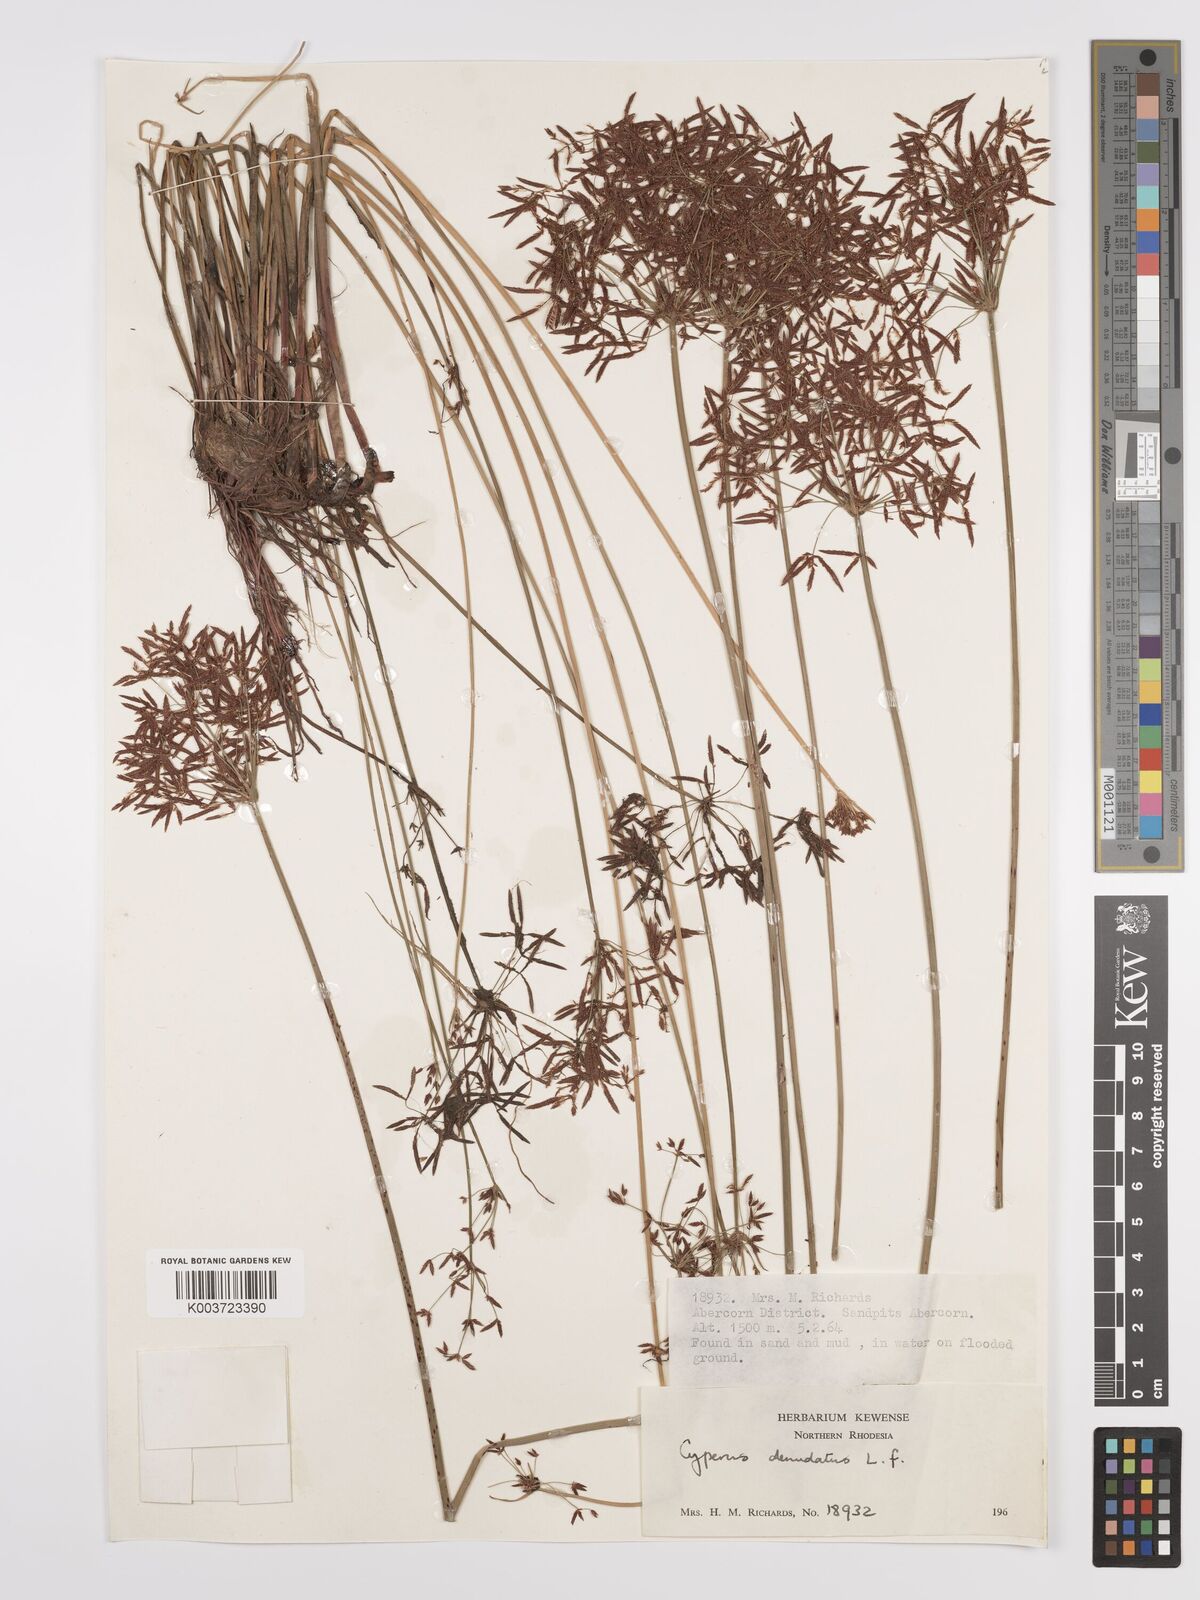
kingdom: Plantae
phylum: Tracheophyta
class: Liliopsida
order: Poales
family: Cyperaceae
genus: Cyperus
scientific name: Cyperus denudatus
